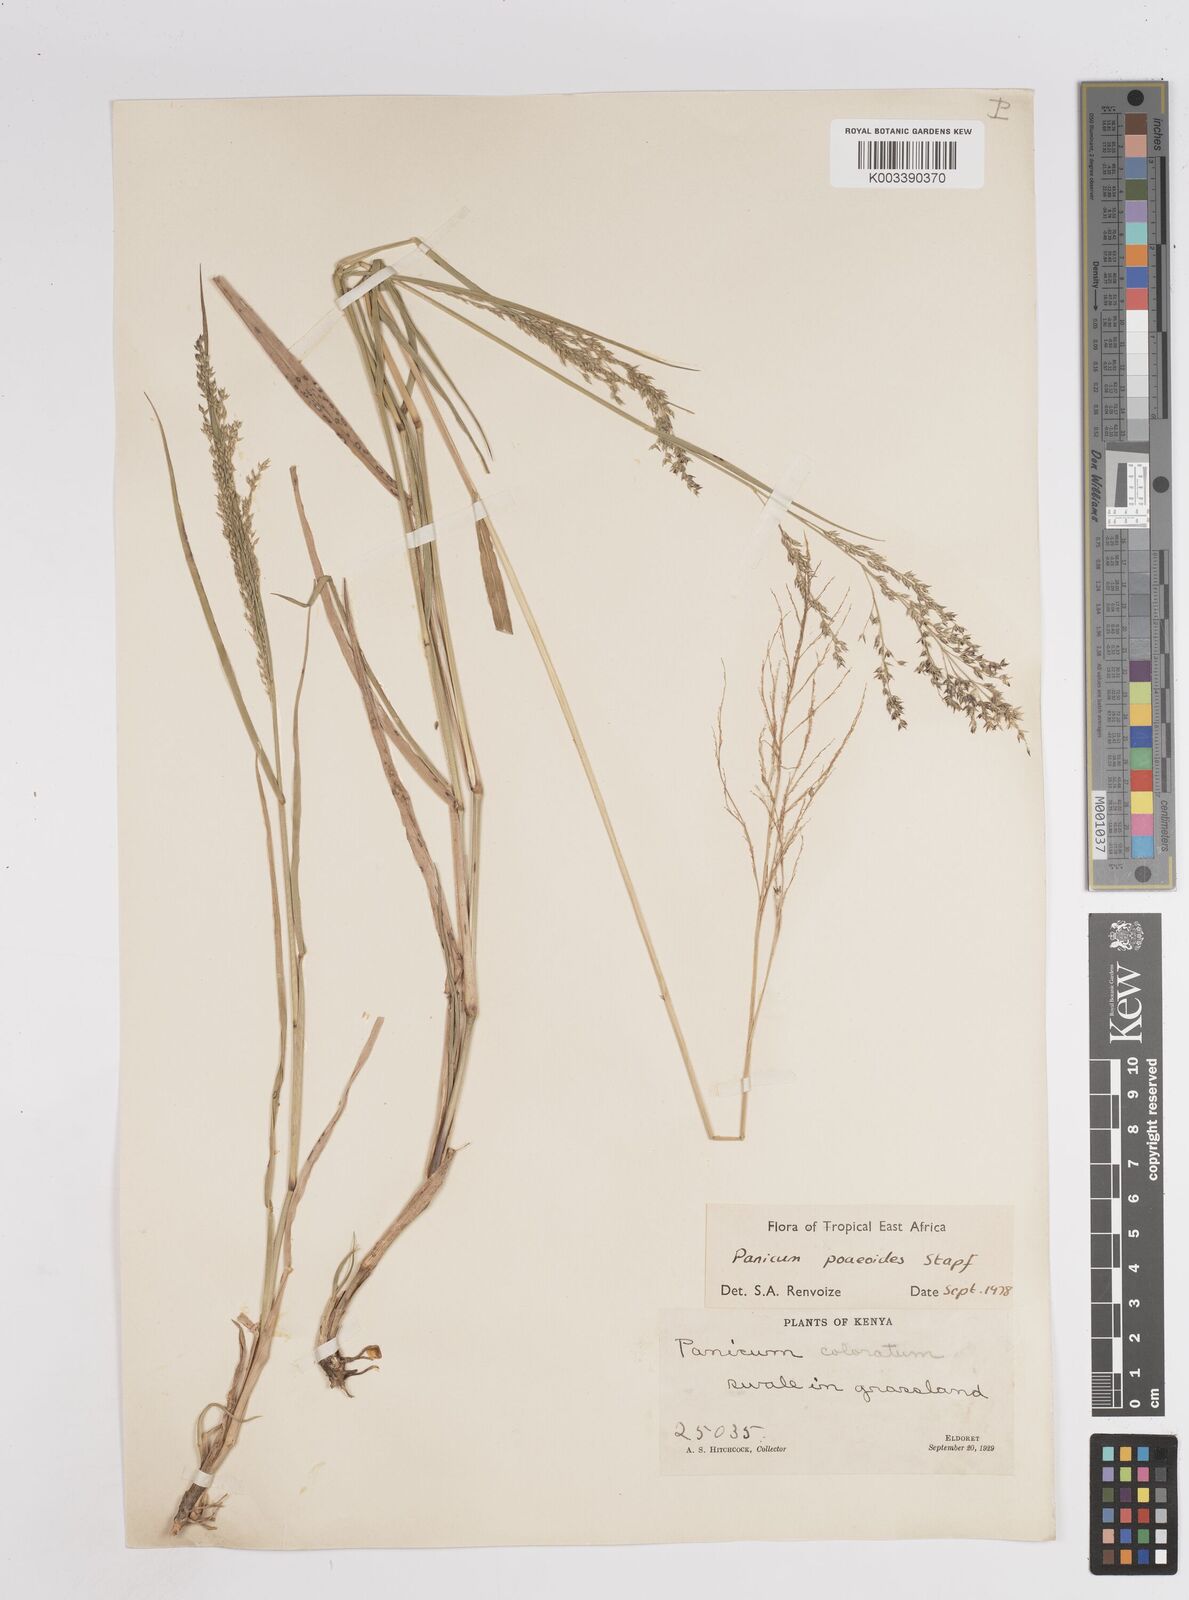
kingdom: Plantae
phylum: Tracheophyta
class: Liliopsida
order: Poales
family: Poaceae
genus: Panicum
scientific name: Panicum
